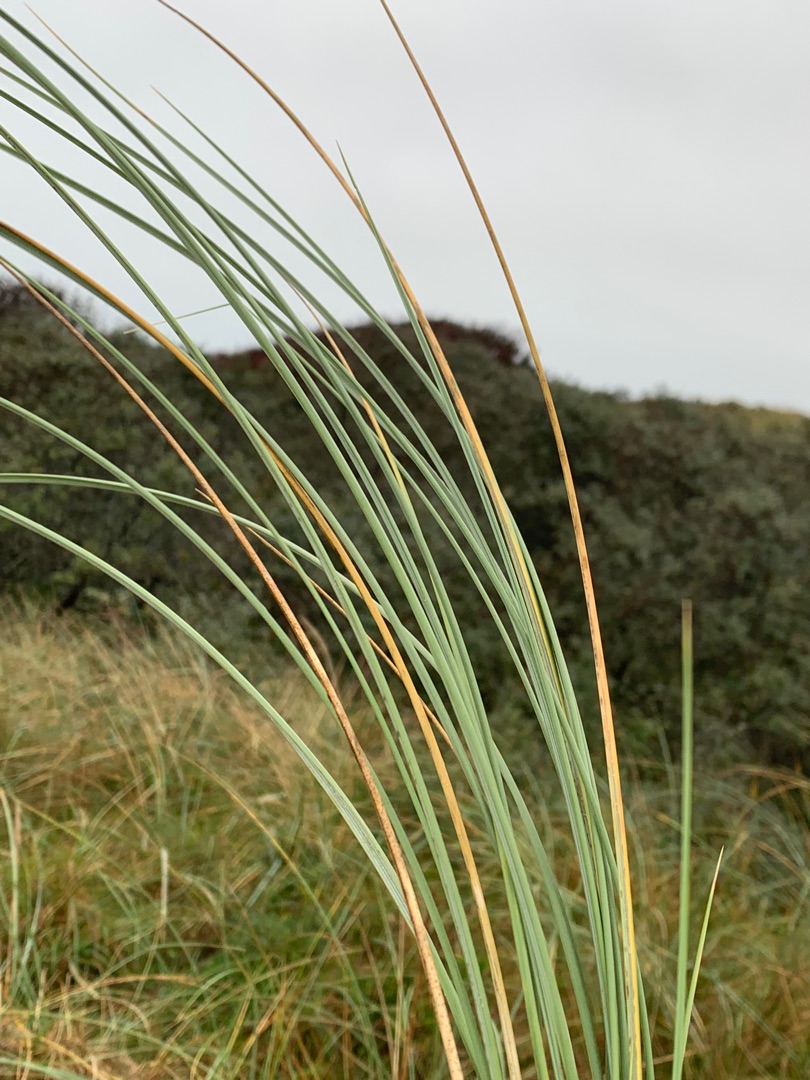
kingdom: Plantae
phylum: Tracheophyta
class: Liliopsida
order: Poales
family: Poaceae
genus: Calamagrostis
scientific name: Calamagrostis arenaria
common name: Sand-hjælme
